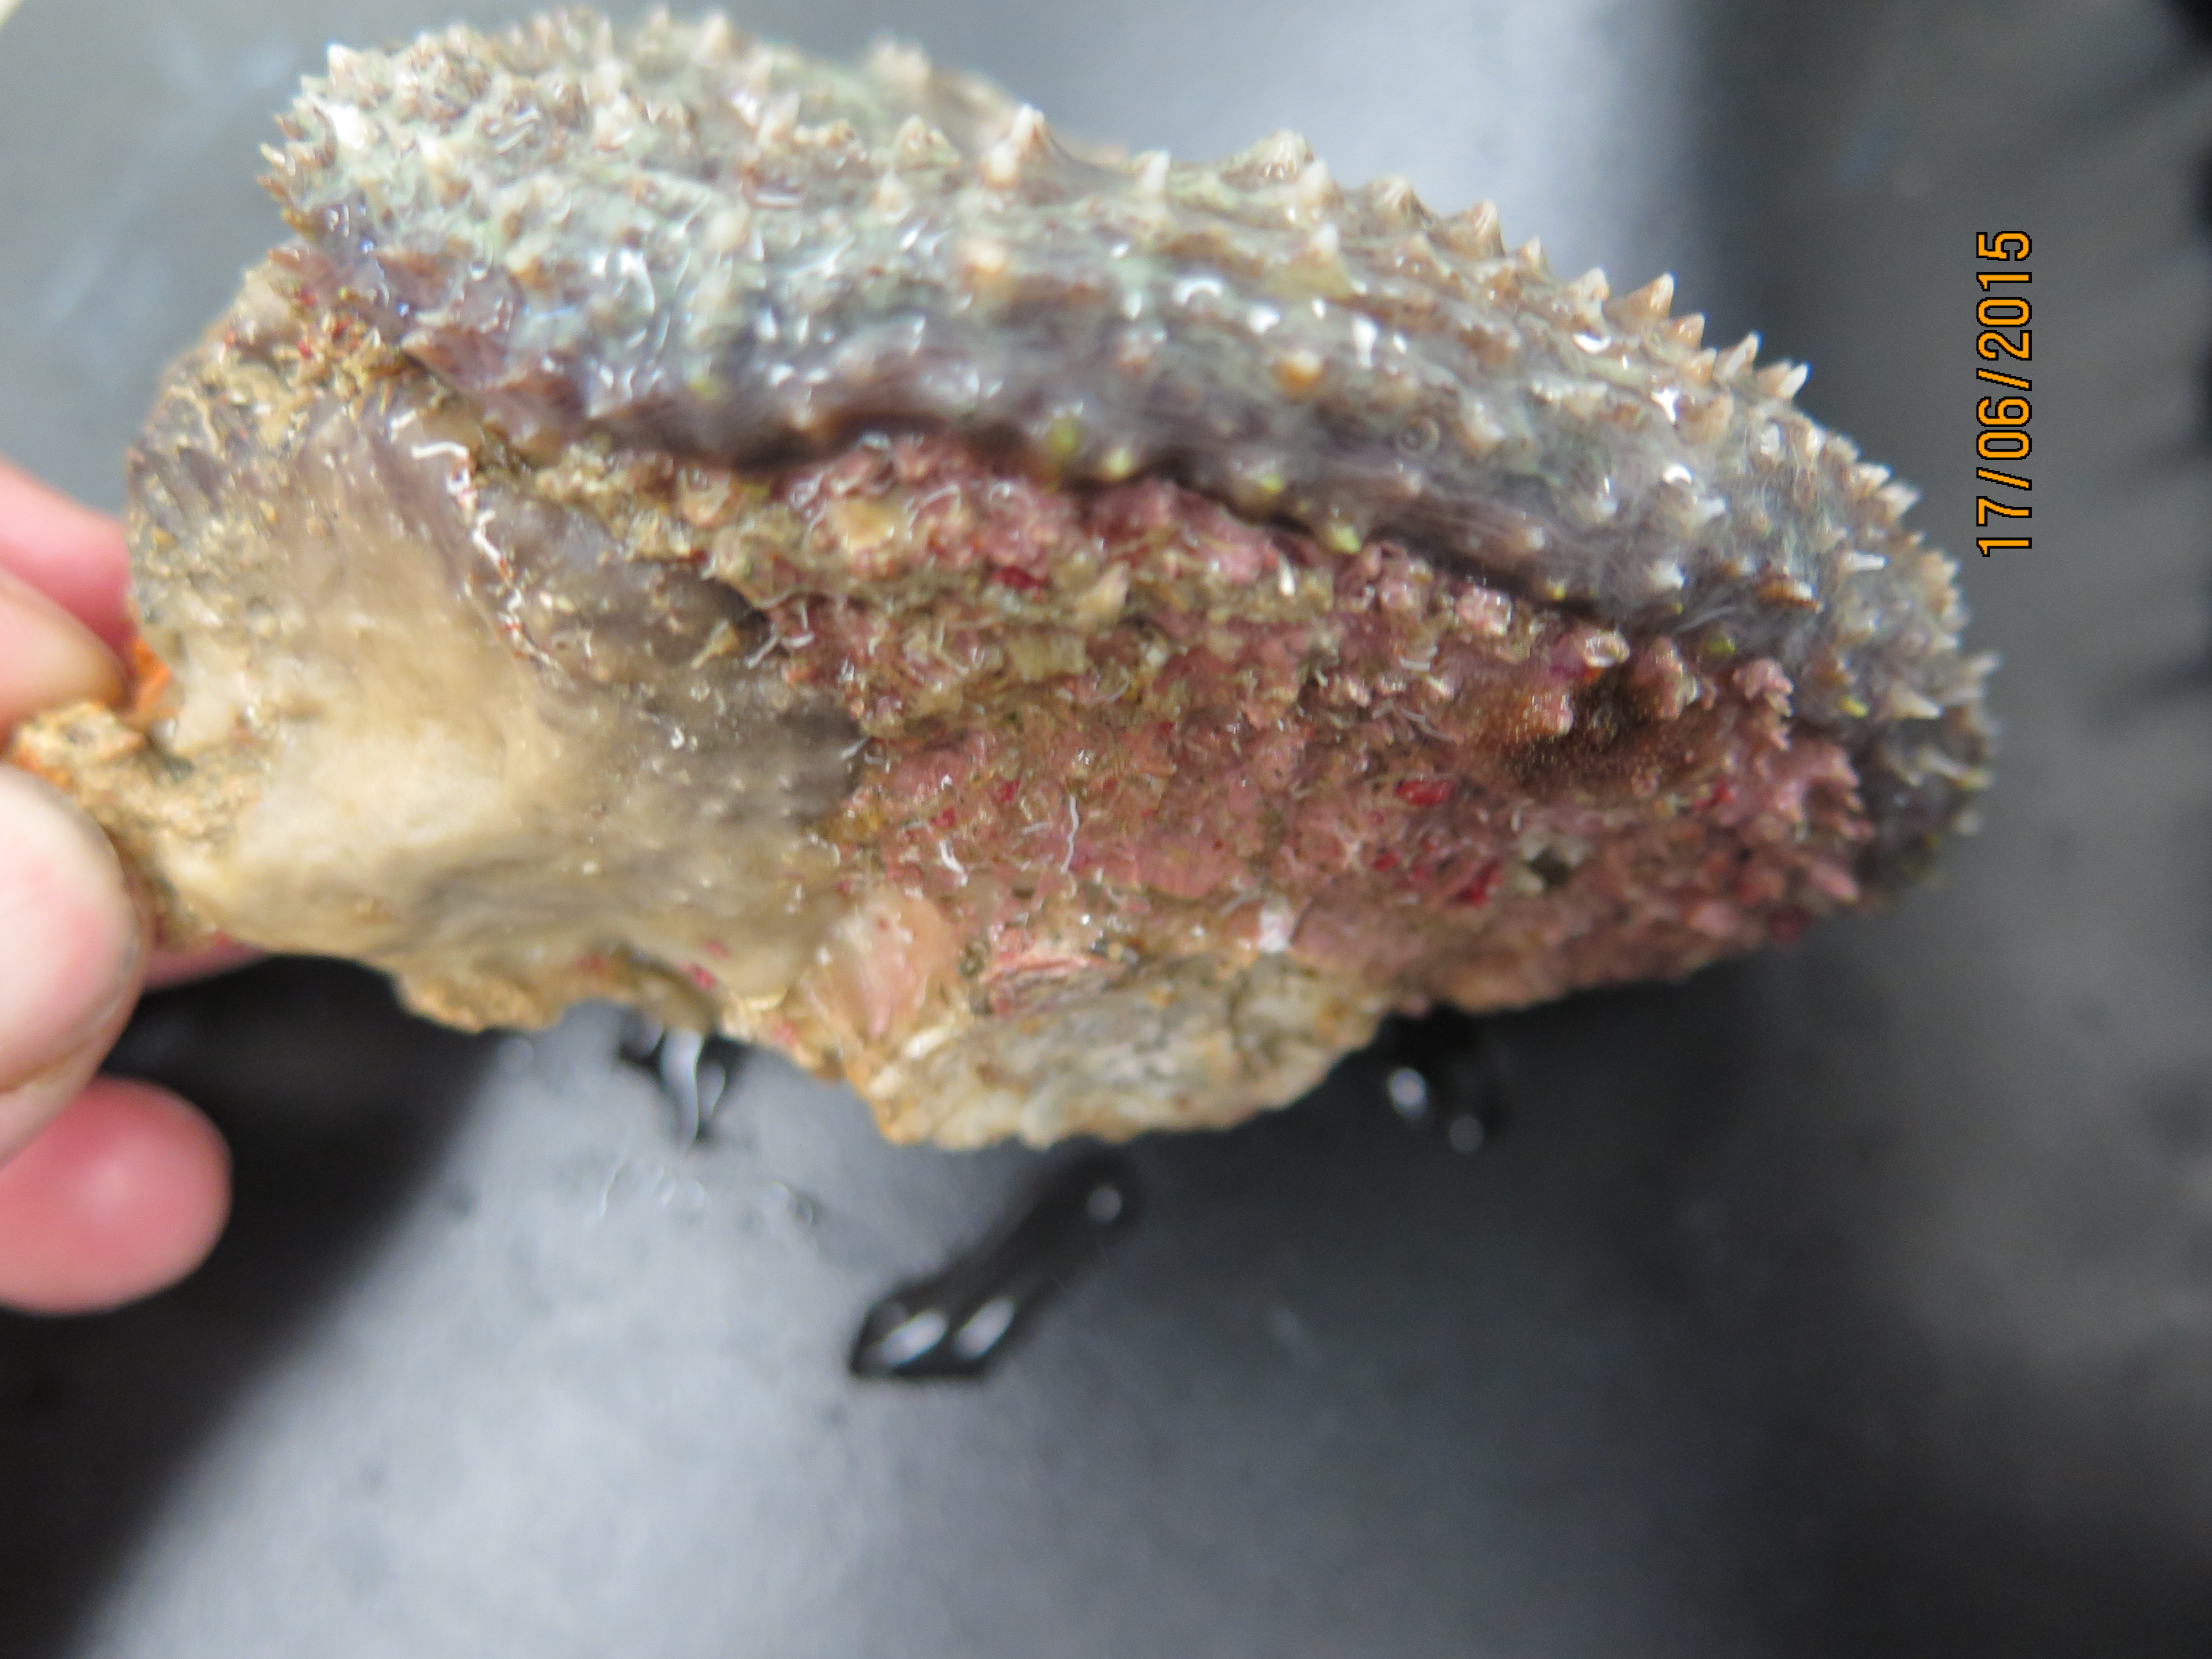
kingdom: Animalia
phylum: Cnidaria
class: Anthozoa
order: Scleractinia
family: Faviidae
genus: Mussa
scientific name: Mussa angulosa
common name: Spiny flower coral
